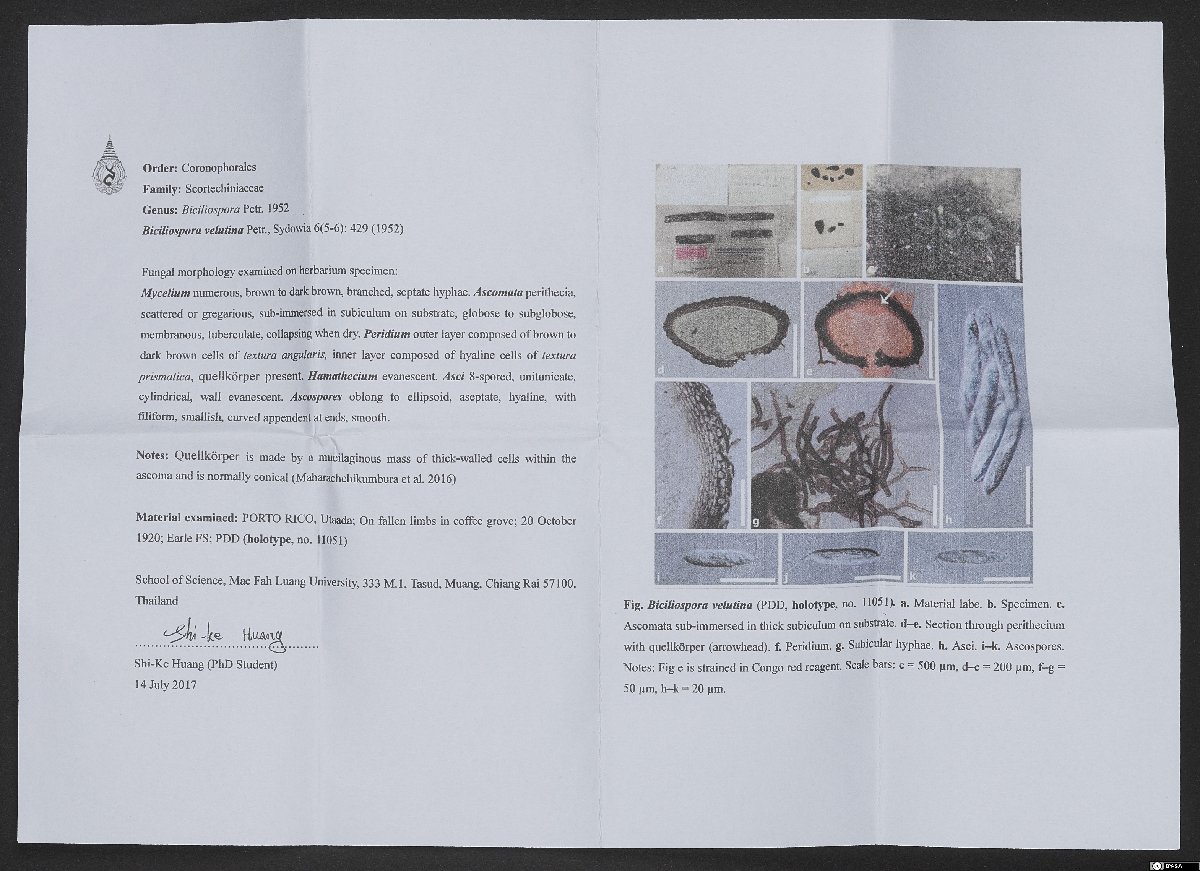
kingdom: Fungi
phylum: Ascomycota
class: Sordariomycetes
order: Coronophorales
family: Nitschkiaceae
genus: Nitschkia
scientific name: Nitschkia velutina
